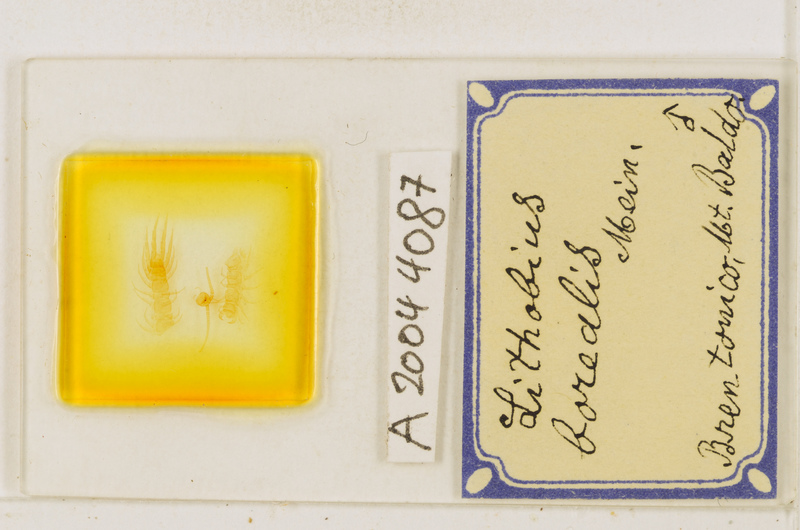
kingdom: Animalia
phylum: Arthropoda
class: Chilopoda
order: Lithobiomorpha
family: Lithobiidae
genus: Lithobius
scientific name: Lithobius borealis
